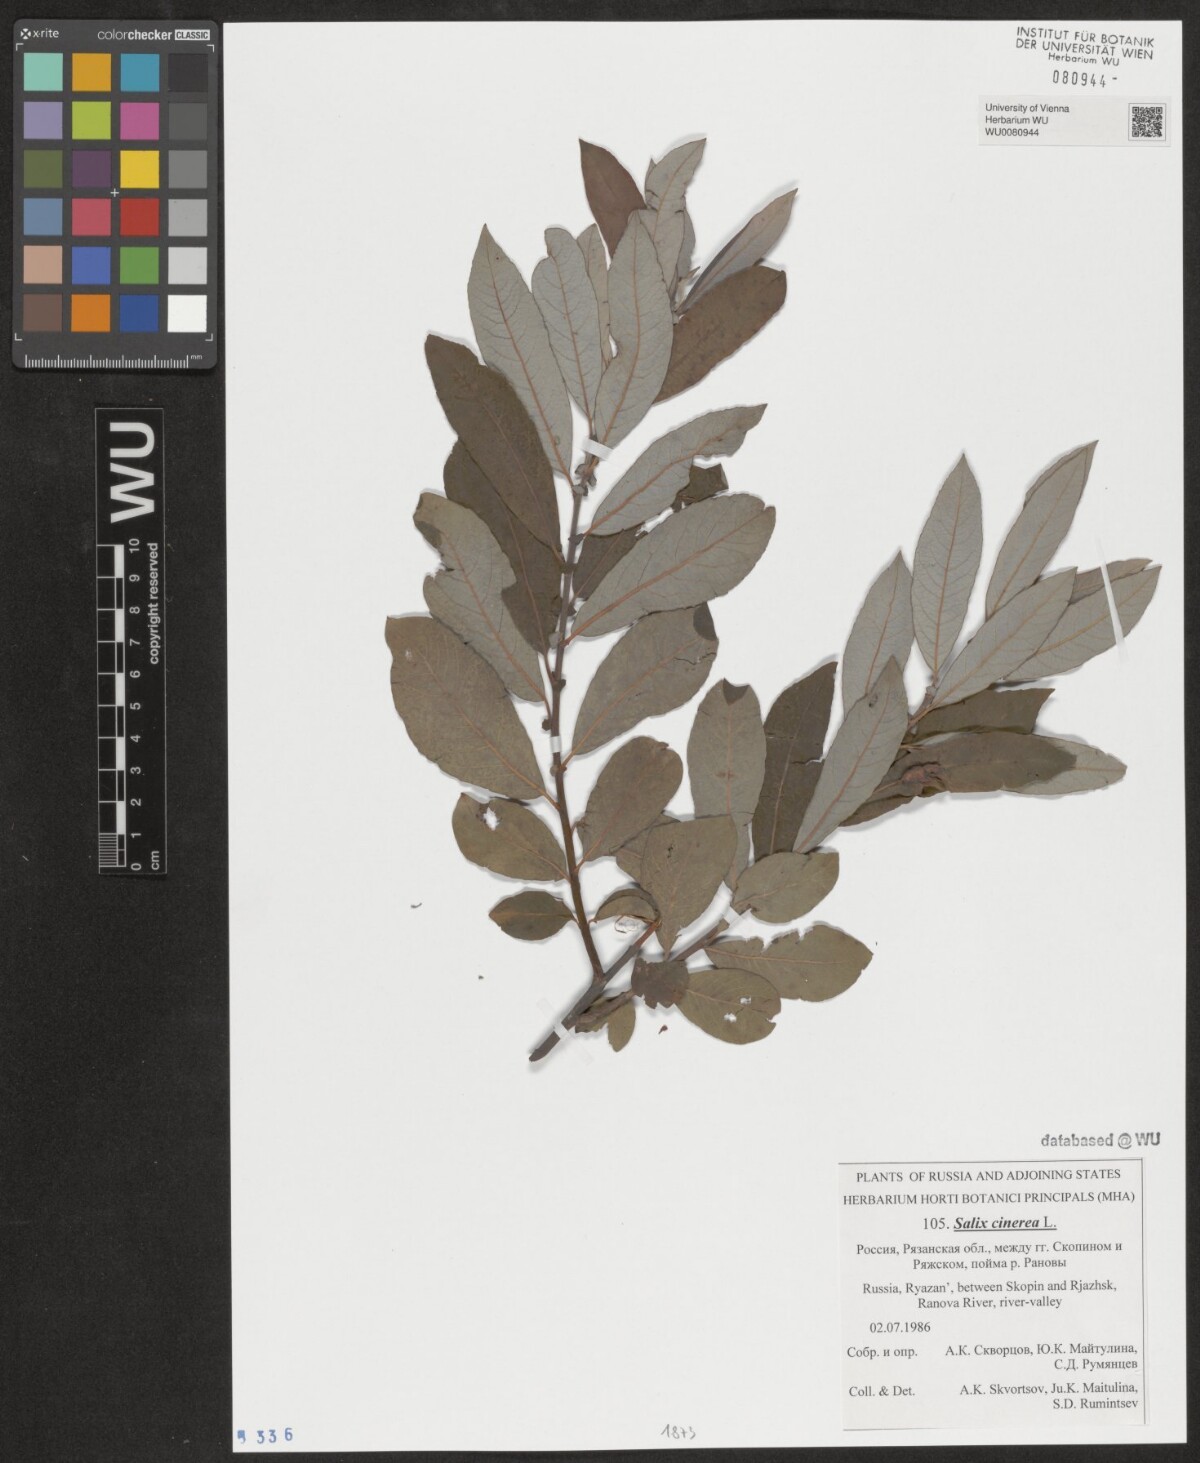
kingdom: Plantae
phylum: Tracheophyta
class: Magnoliopsida
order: Malpighiales
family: Salicaceae
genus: Salix
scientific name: Salix cinerea
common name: Common sallow
